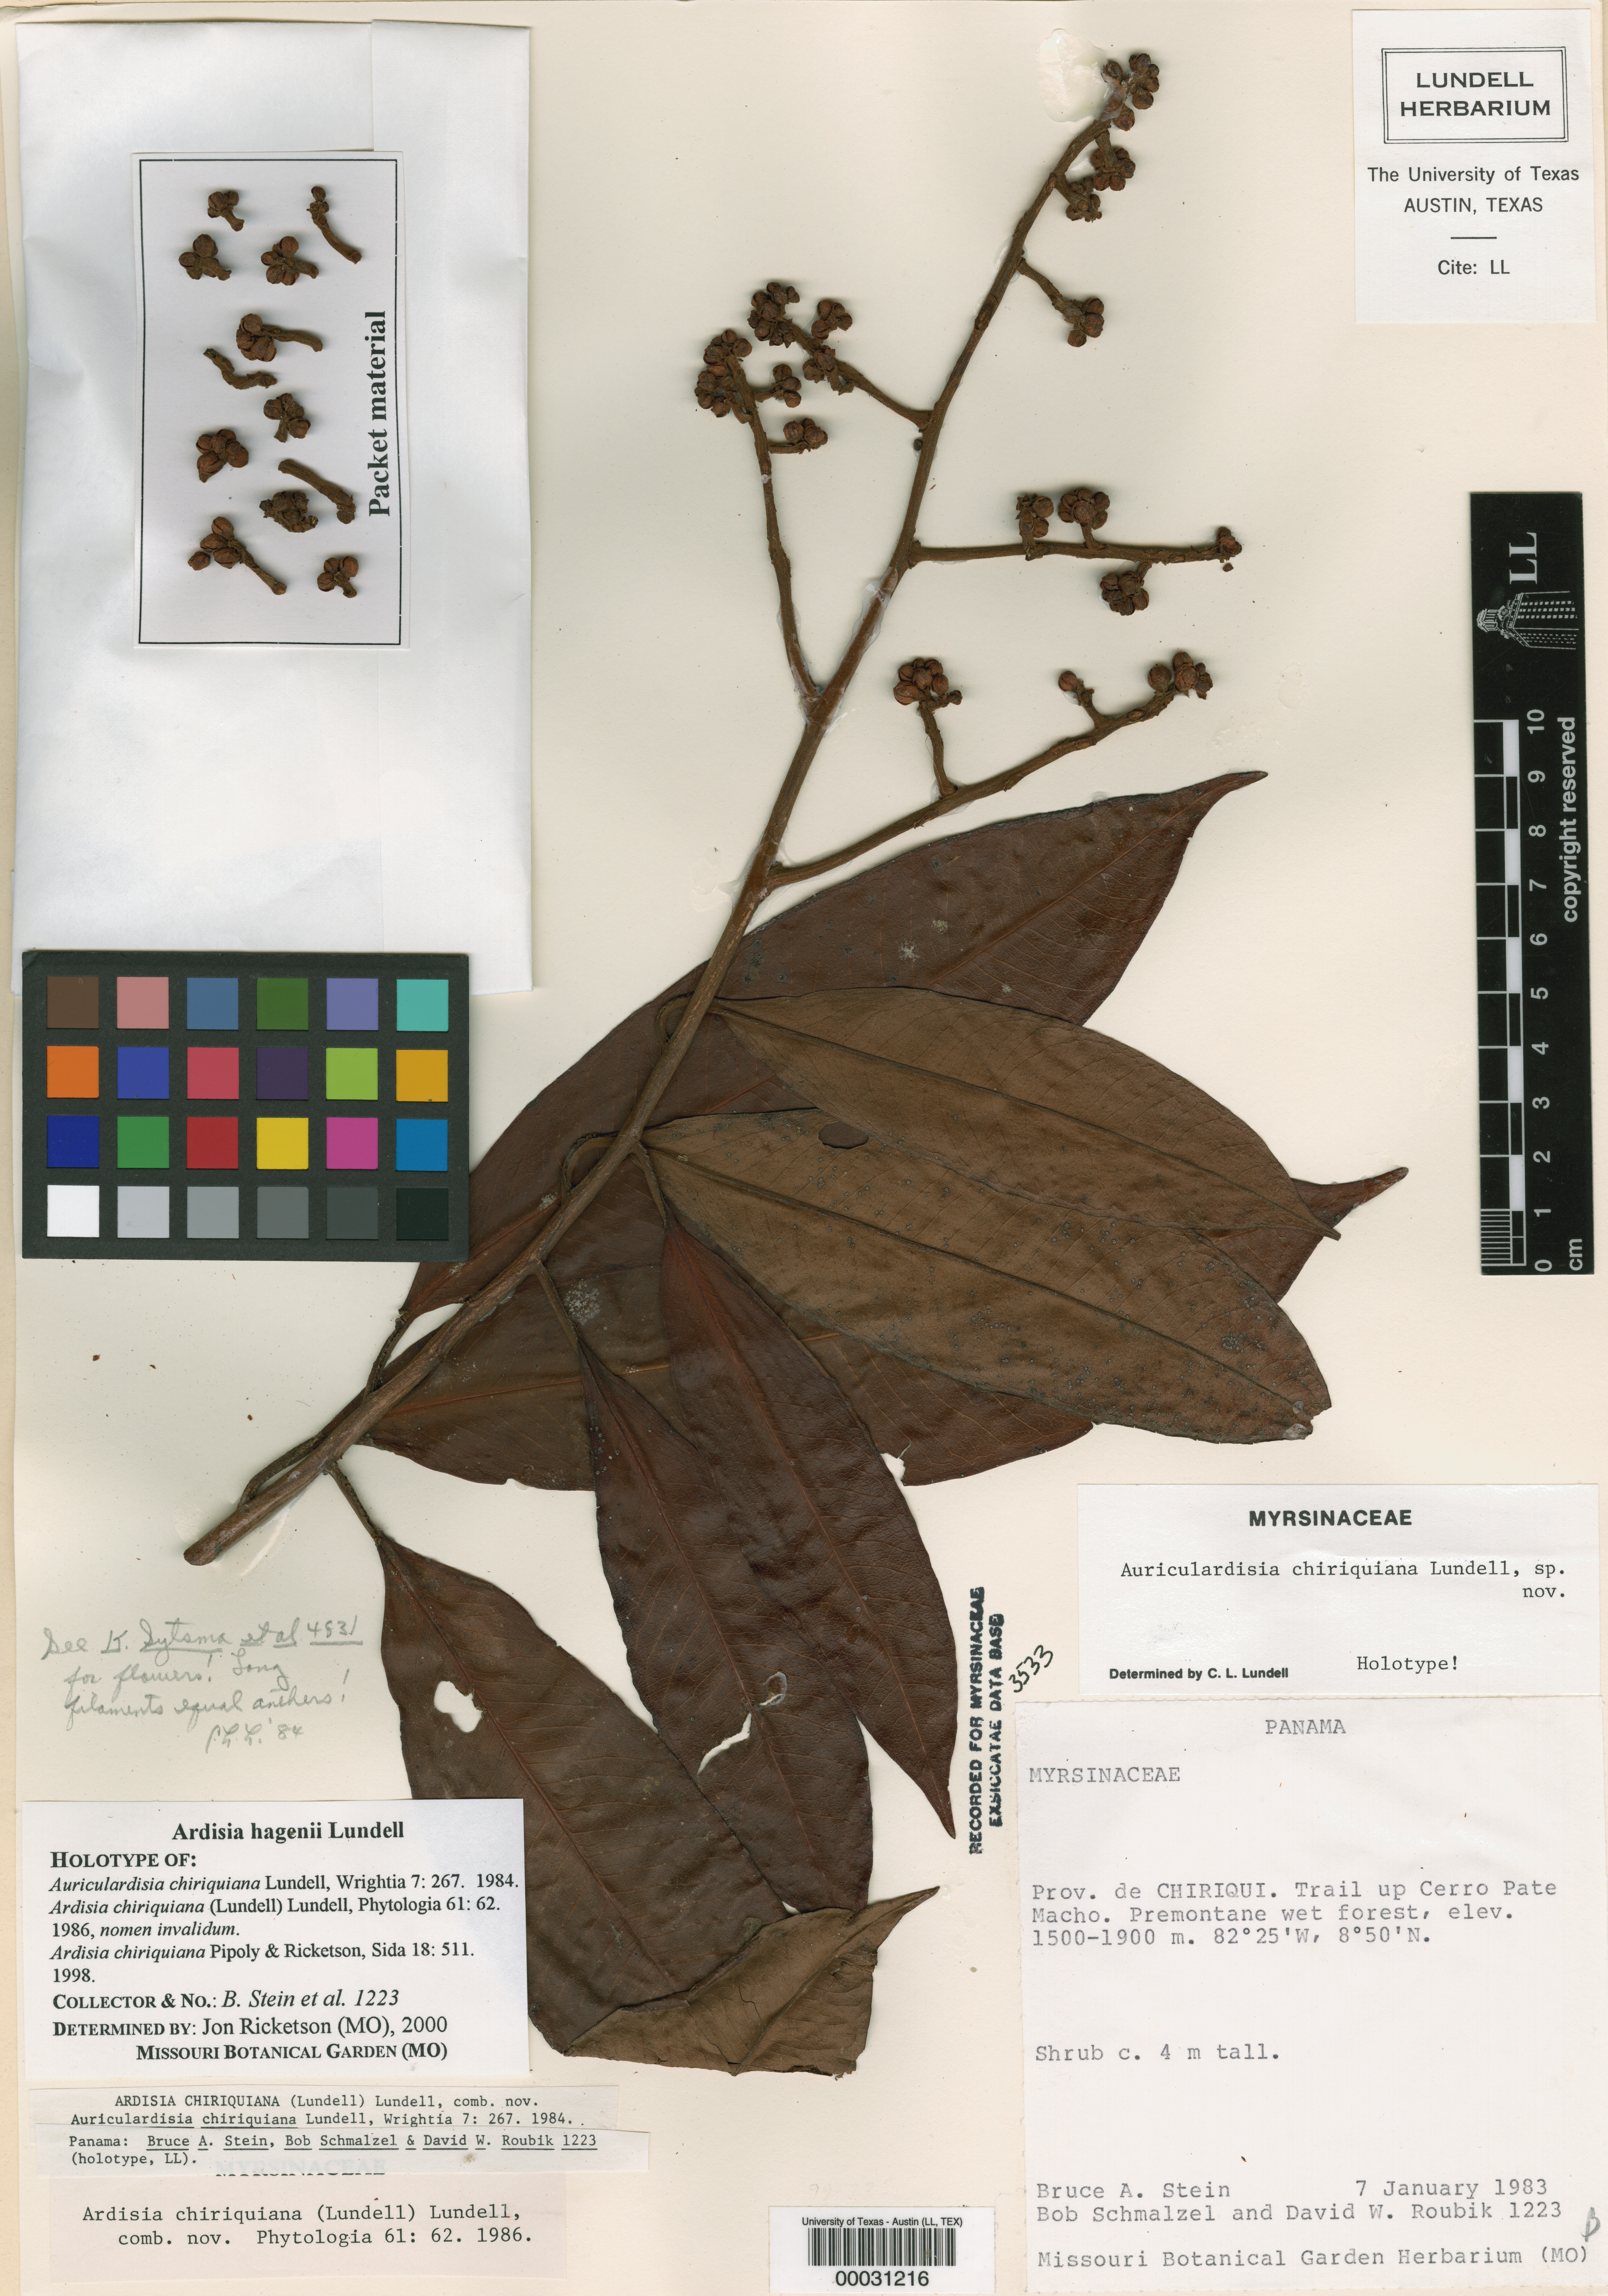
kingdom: Plantae
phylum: Tracheophyta
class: Magnoliopsida
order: Ericales
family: Primulaceae
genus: Ardisia
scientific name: Ardisia hagenii
